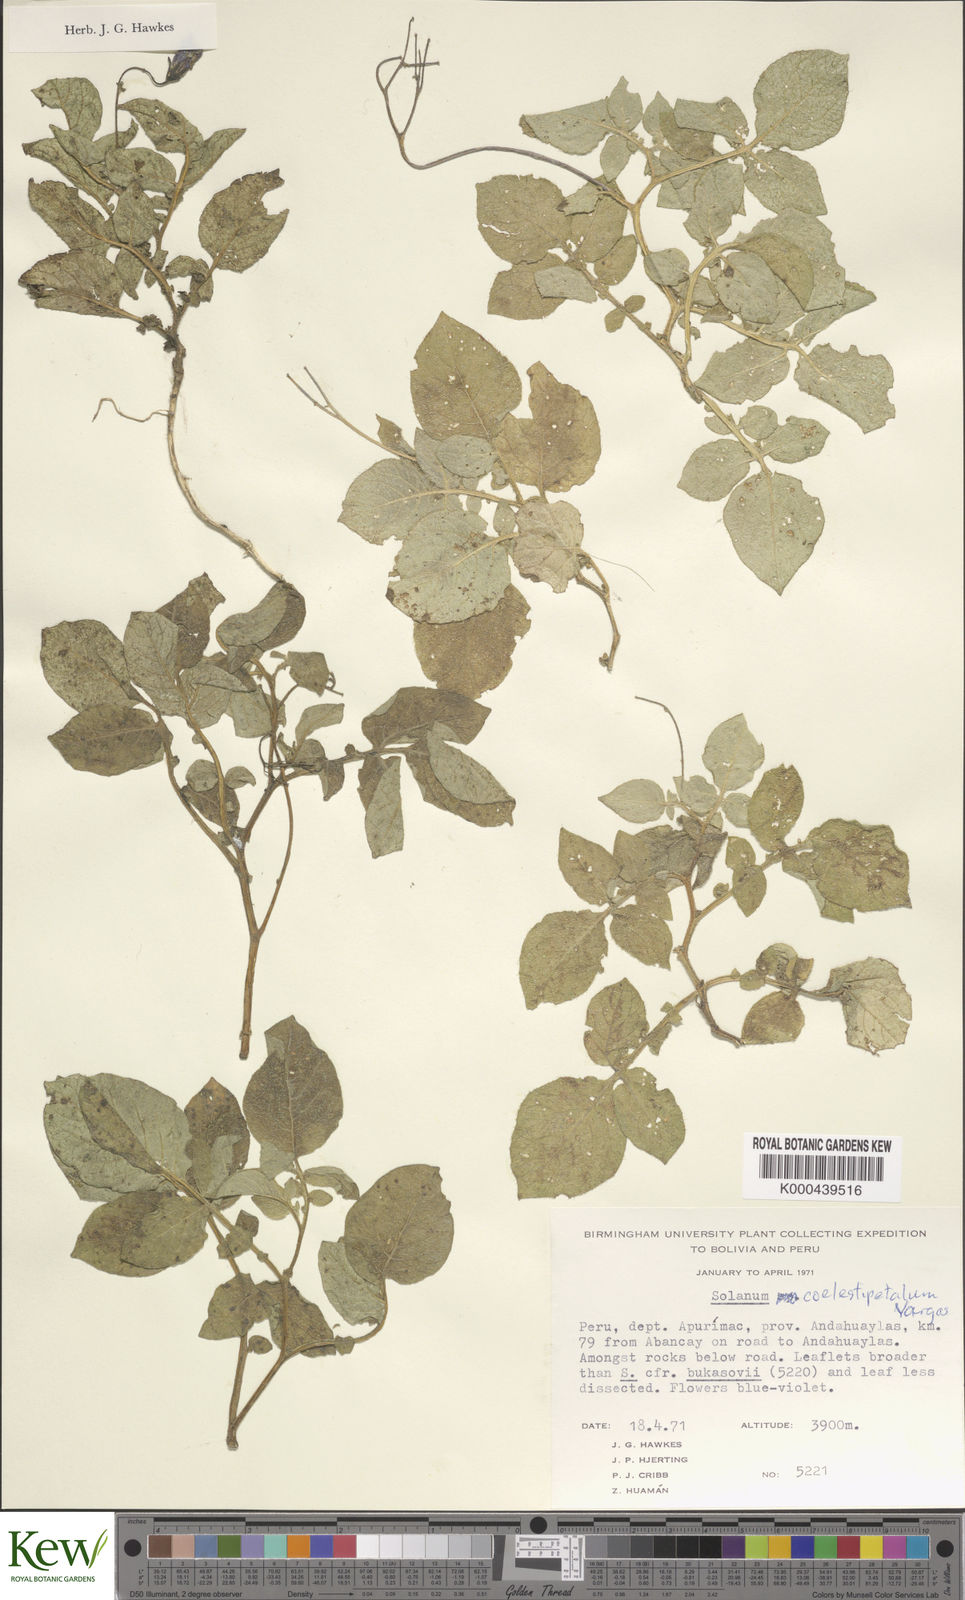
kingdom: Plantae
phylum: Tracheophyta
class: Magnoliopsida
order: Solanales
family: Solanaceae
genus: Solanum
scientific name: Solanum candolleanum
